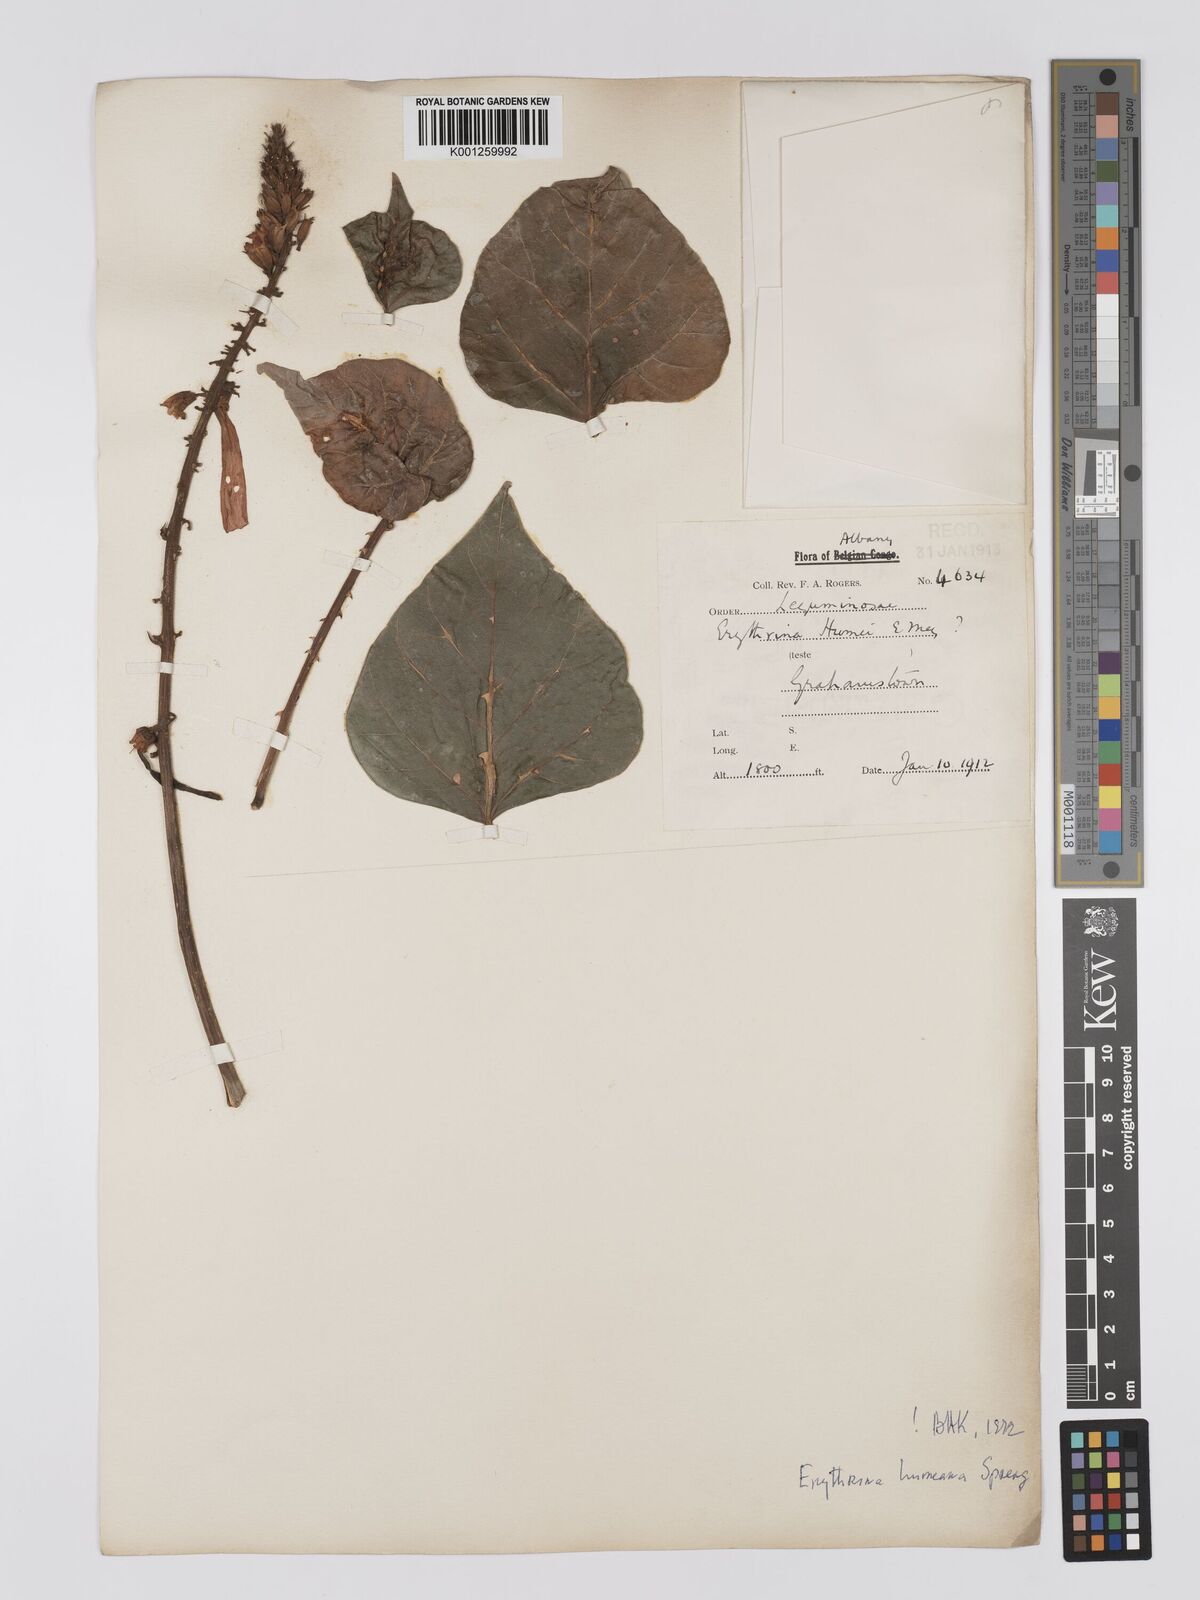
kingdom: Plantae
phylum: Tracheophyta
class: Magnoliopsida
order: Fabales
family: Fabaceae
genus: Erythrina
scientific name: Erythrina humeana
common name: Dwarf coral tree
